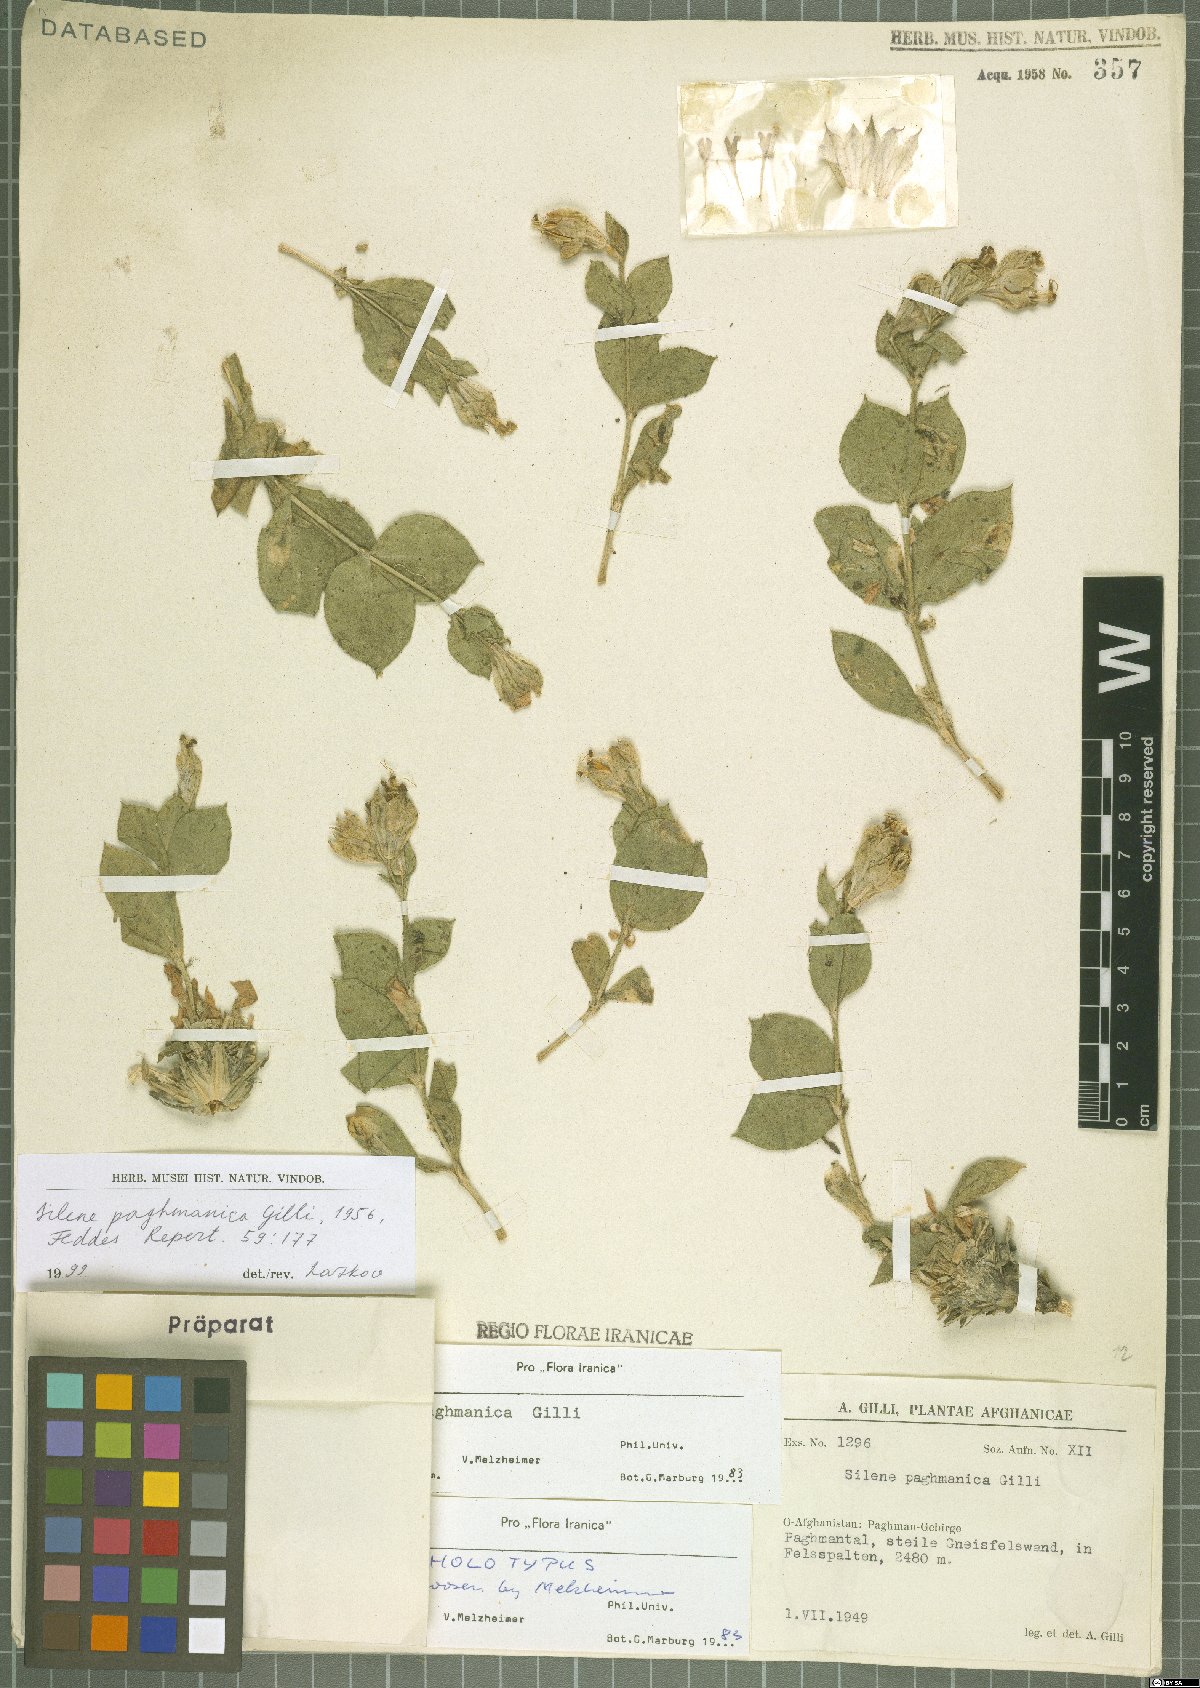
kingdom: Plantae
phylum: Tracheophyta
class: Magnoliopsida
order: Caryophyllales
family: Caryophyllaceae
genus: Silene
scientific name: Silene paghmanica
